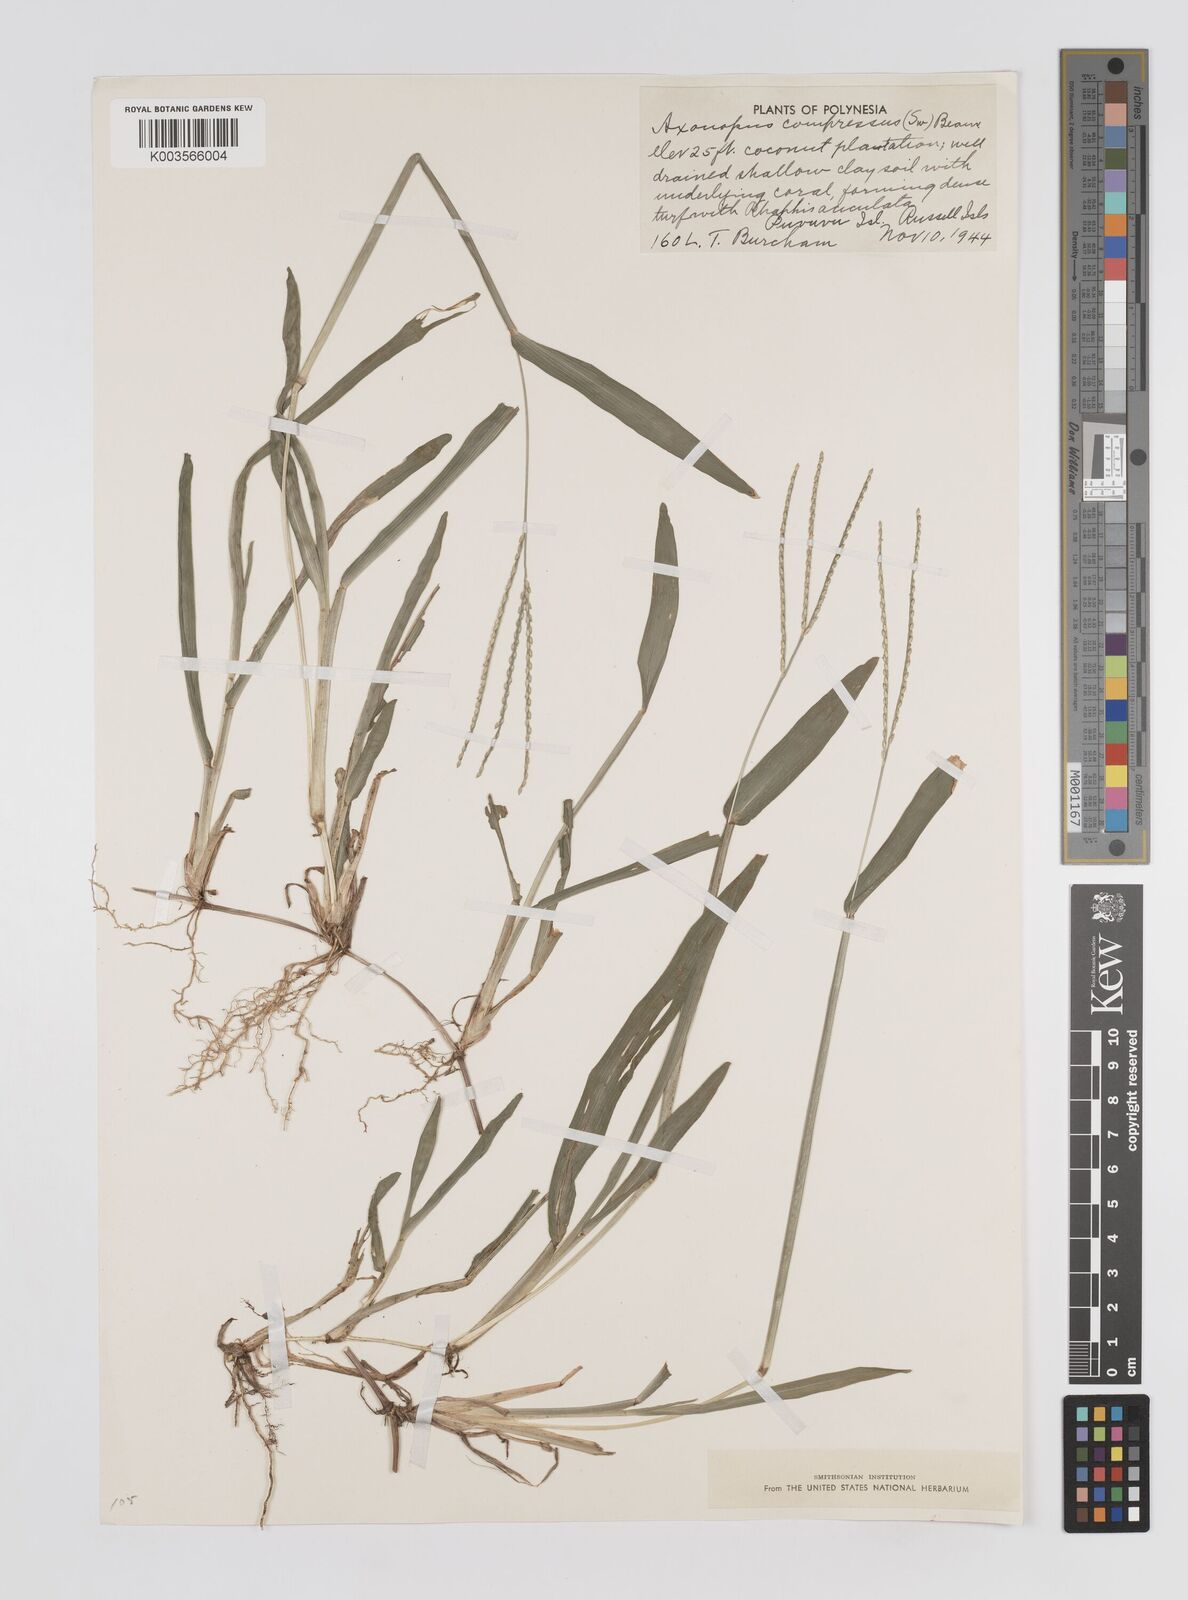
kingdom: Plantae
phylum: Tracheophyta
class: Liliopsida
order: Poales
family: Poaceae
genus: Axonopus
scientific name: Axonopus compressus
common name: American carpet grass
